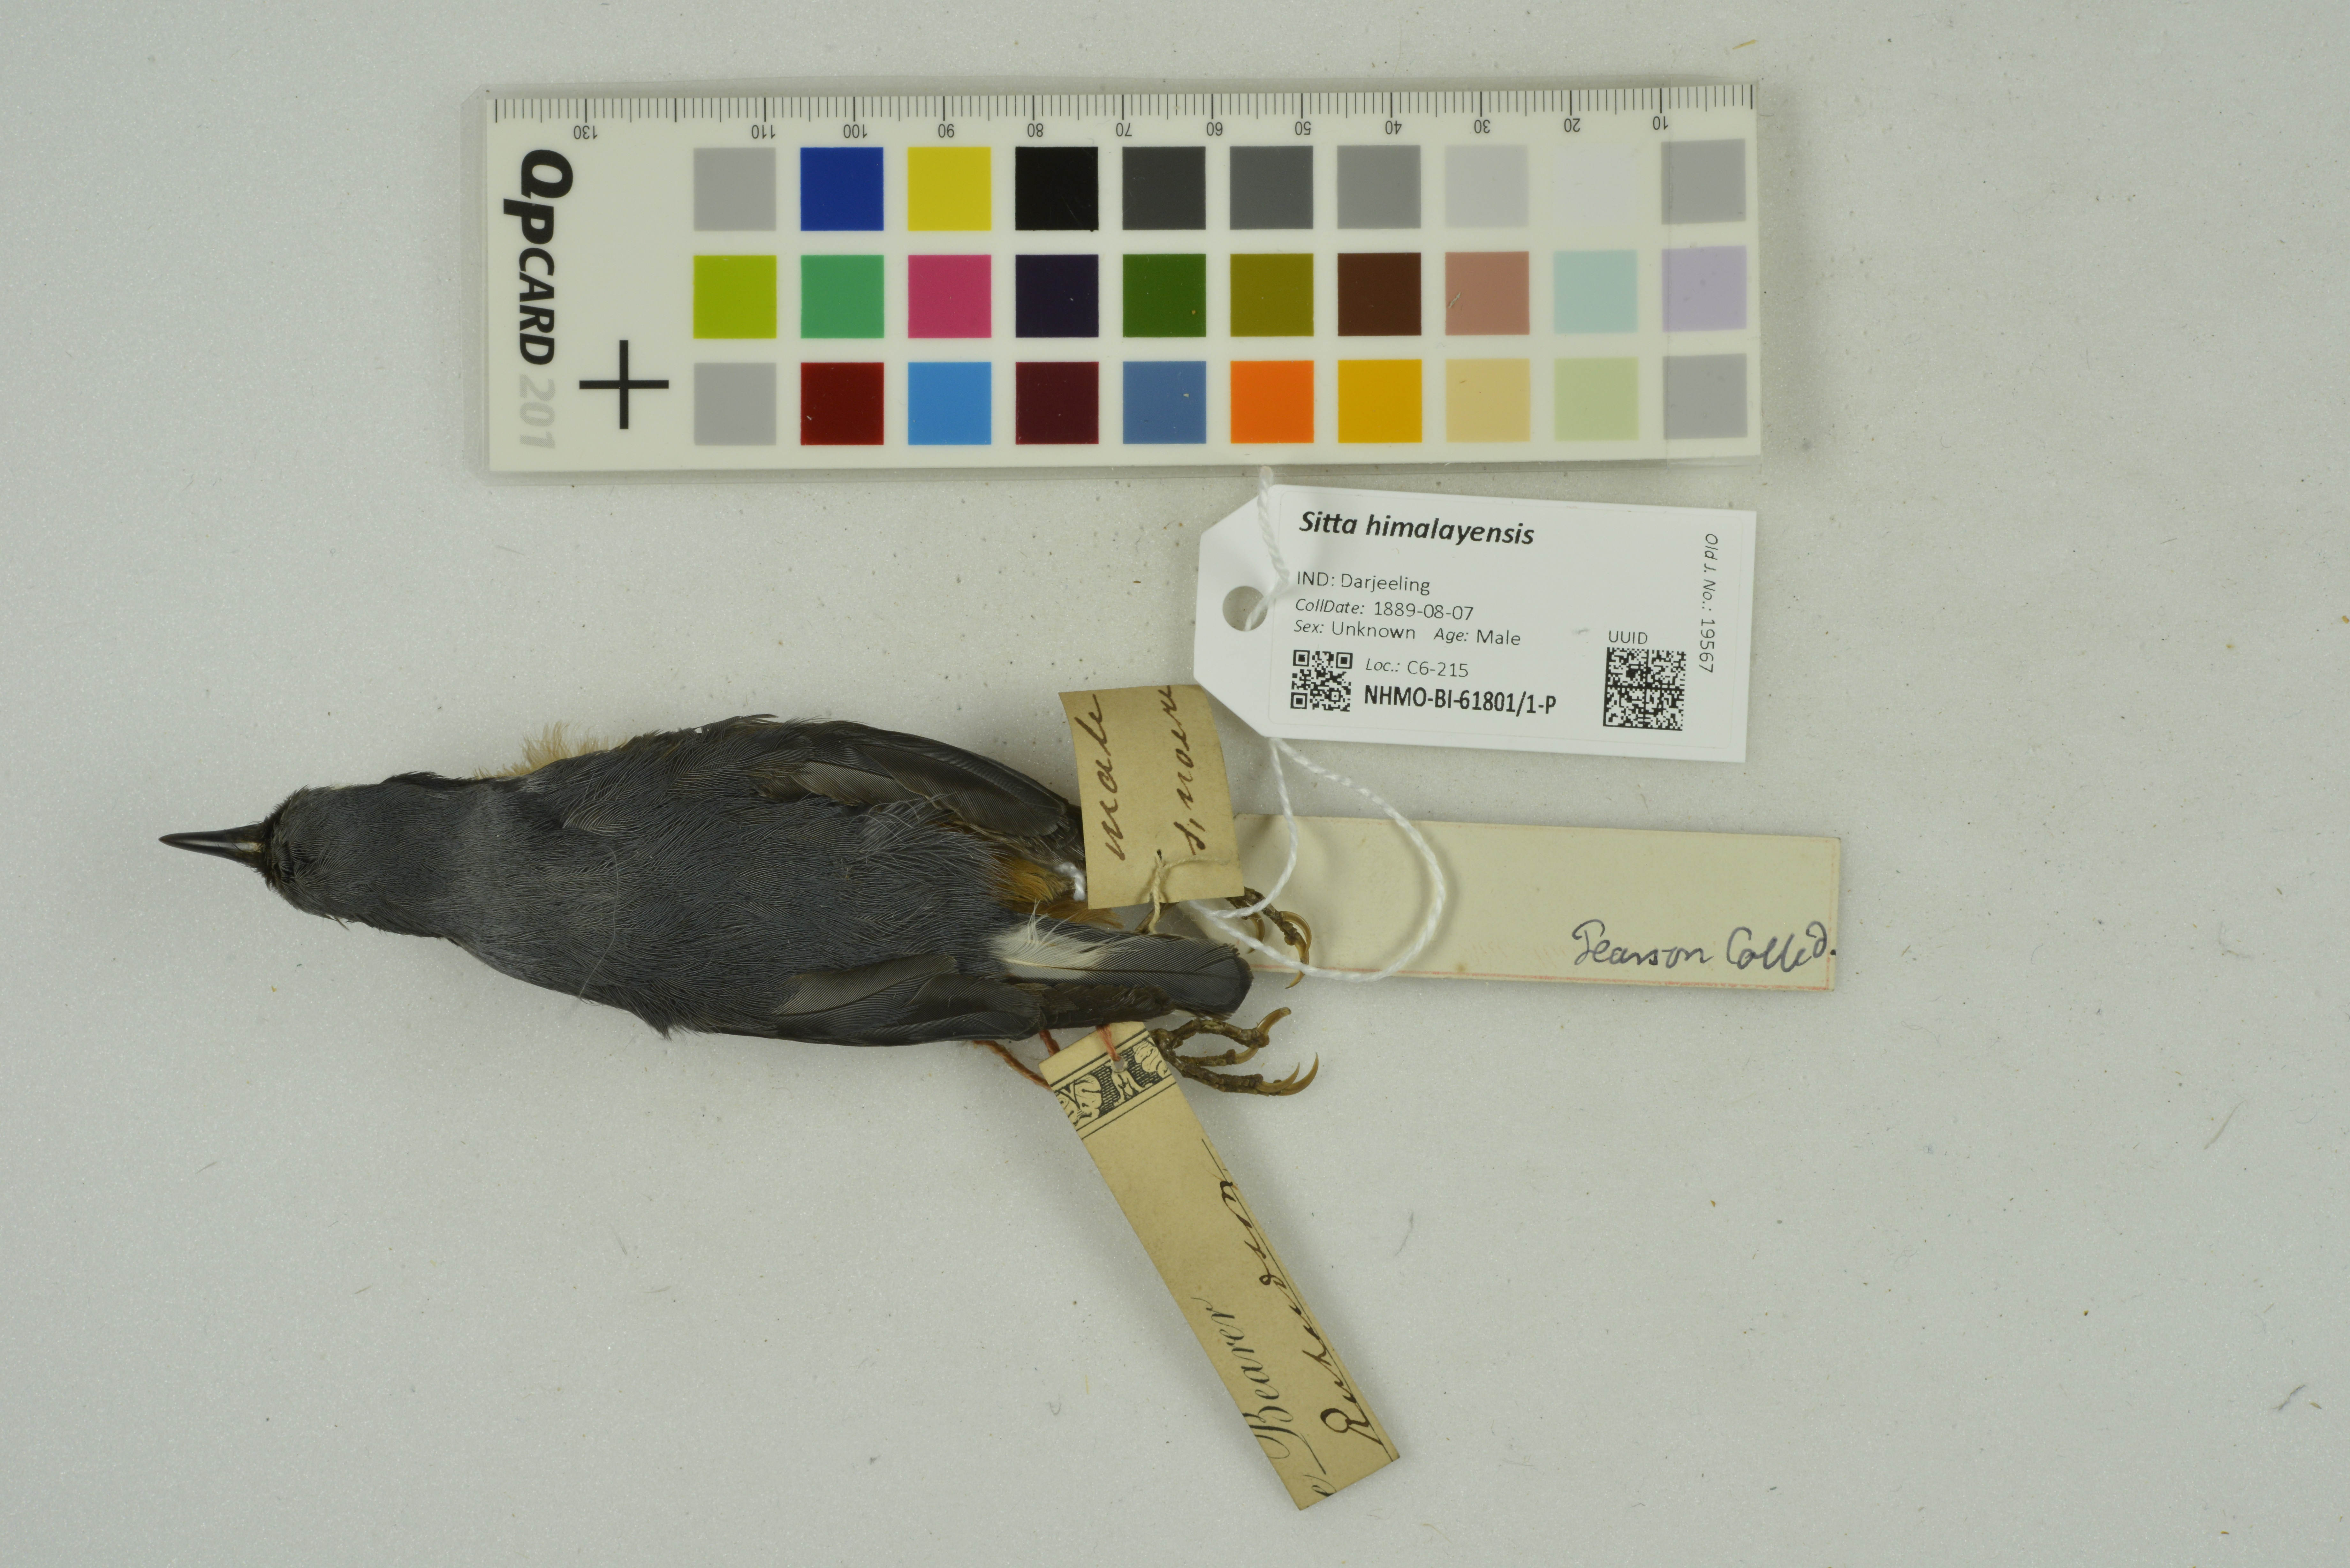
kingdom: Animalia
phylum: Chordata
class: Aves
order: Passeriformes
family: Sittidae
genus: Sitta
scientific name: Sitta himalayensis
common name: White-tailed nuthatch
